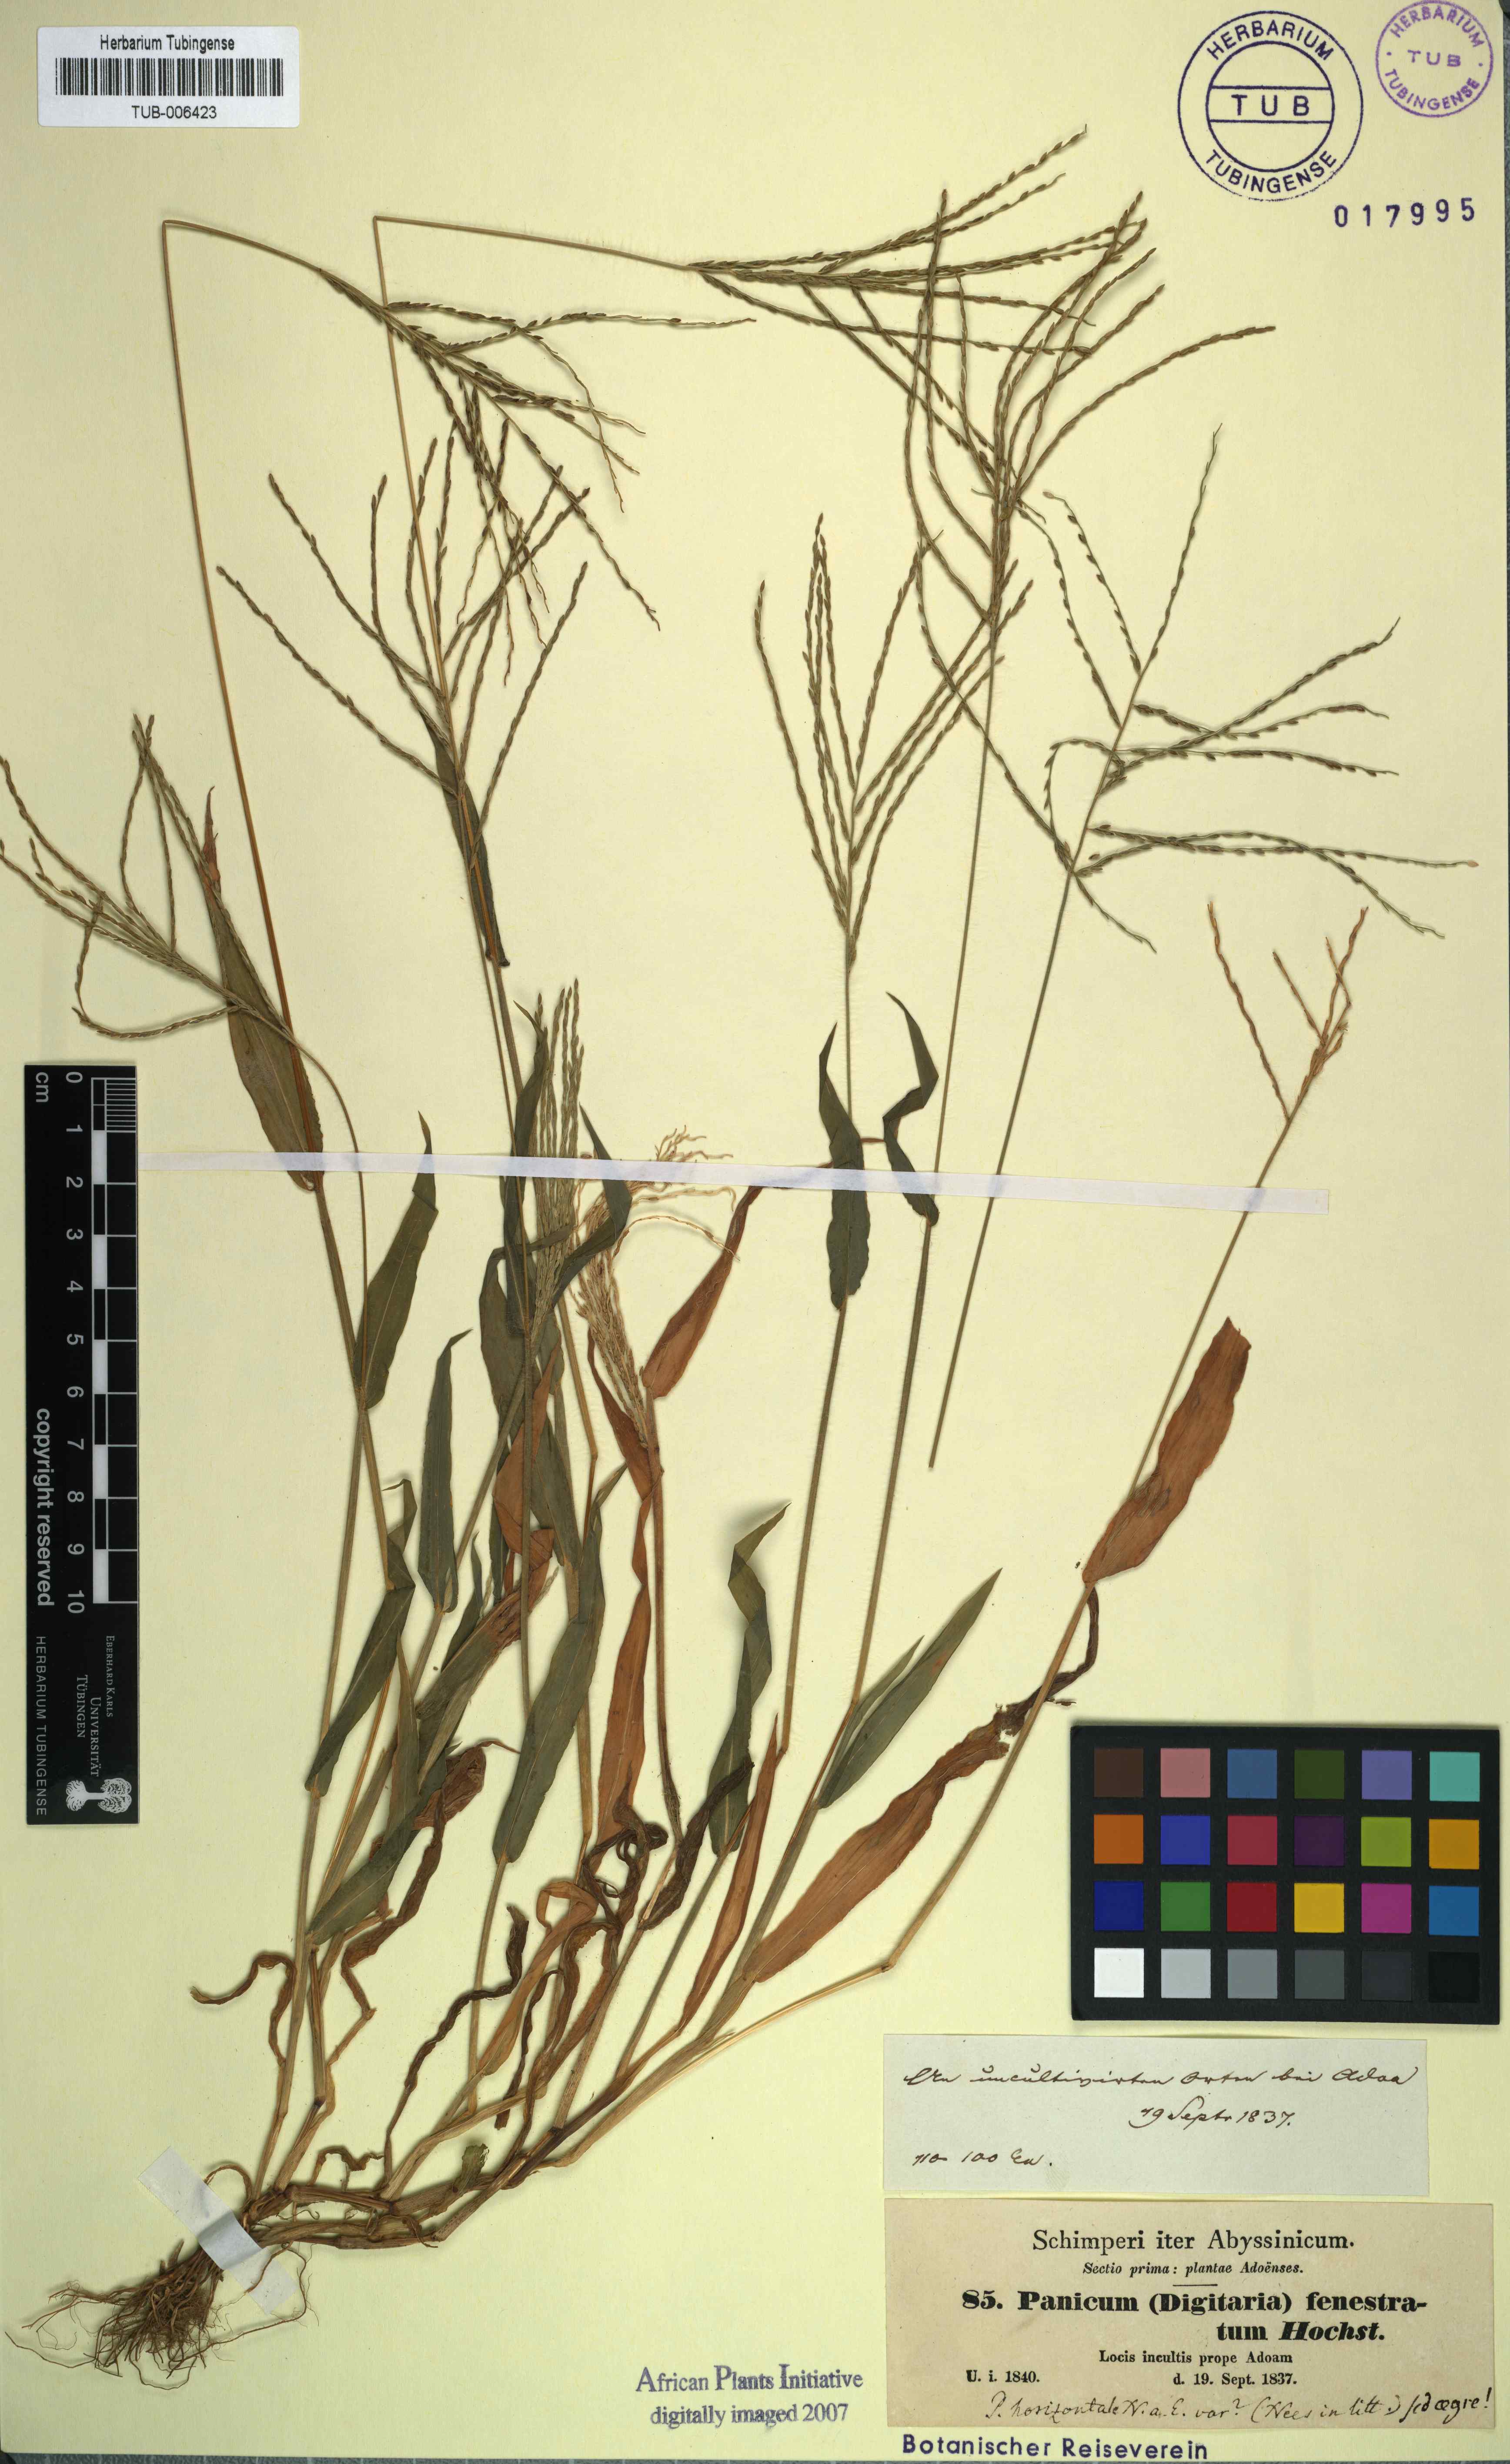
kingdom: Plantae
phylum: Tracheophyta
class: Liliopsida
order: Poales
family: Poaceae
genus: Digitaria
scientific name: Digitaria velutina
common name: Long-plume finger grass
